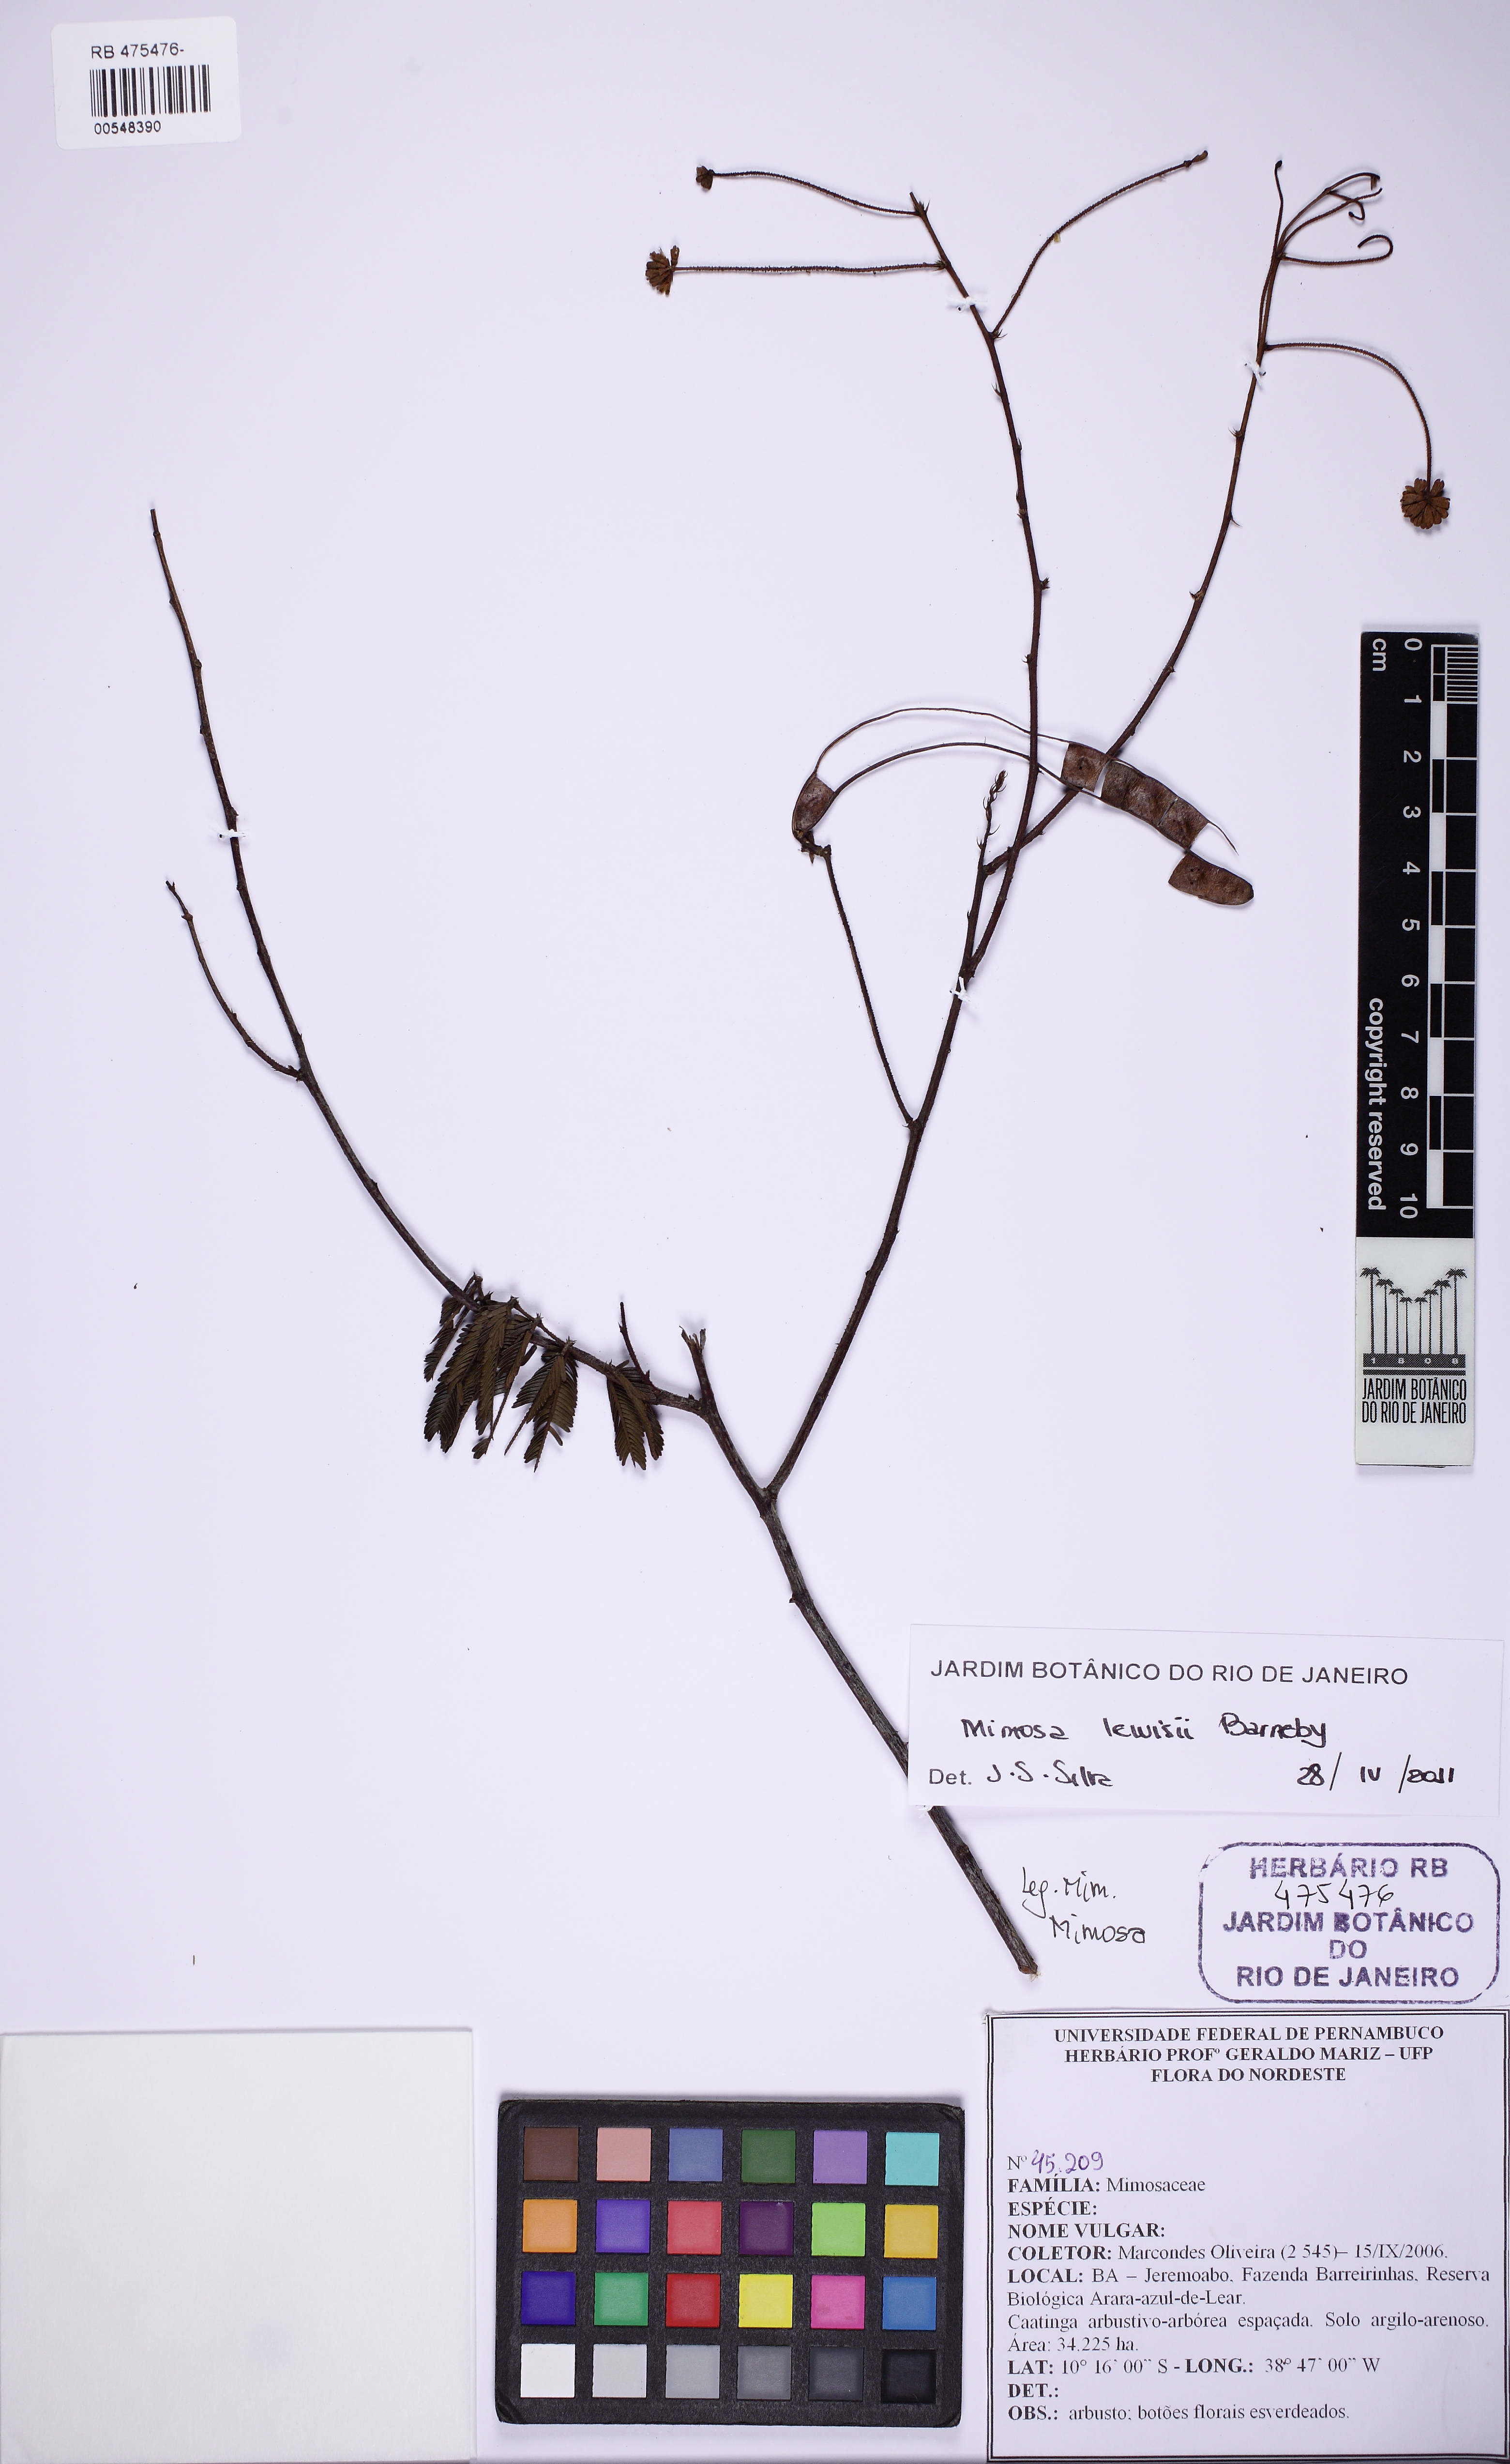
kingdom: Plantae
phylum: Tracheophyta
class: Magnoliopsida
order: Fabales
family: Fabaceae
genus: Mimosa
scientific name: Mimosa lewisii
